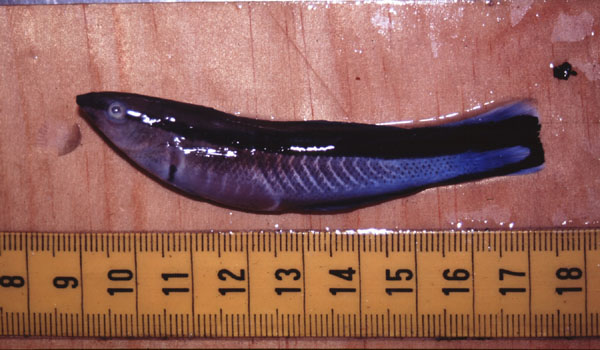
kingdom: Animalia
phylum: Chordata
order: Perciformes
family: Labridae
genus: Labroides
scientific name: Labroides dimidiatus
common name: Blue diesel wrasse
